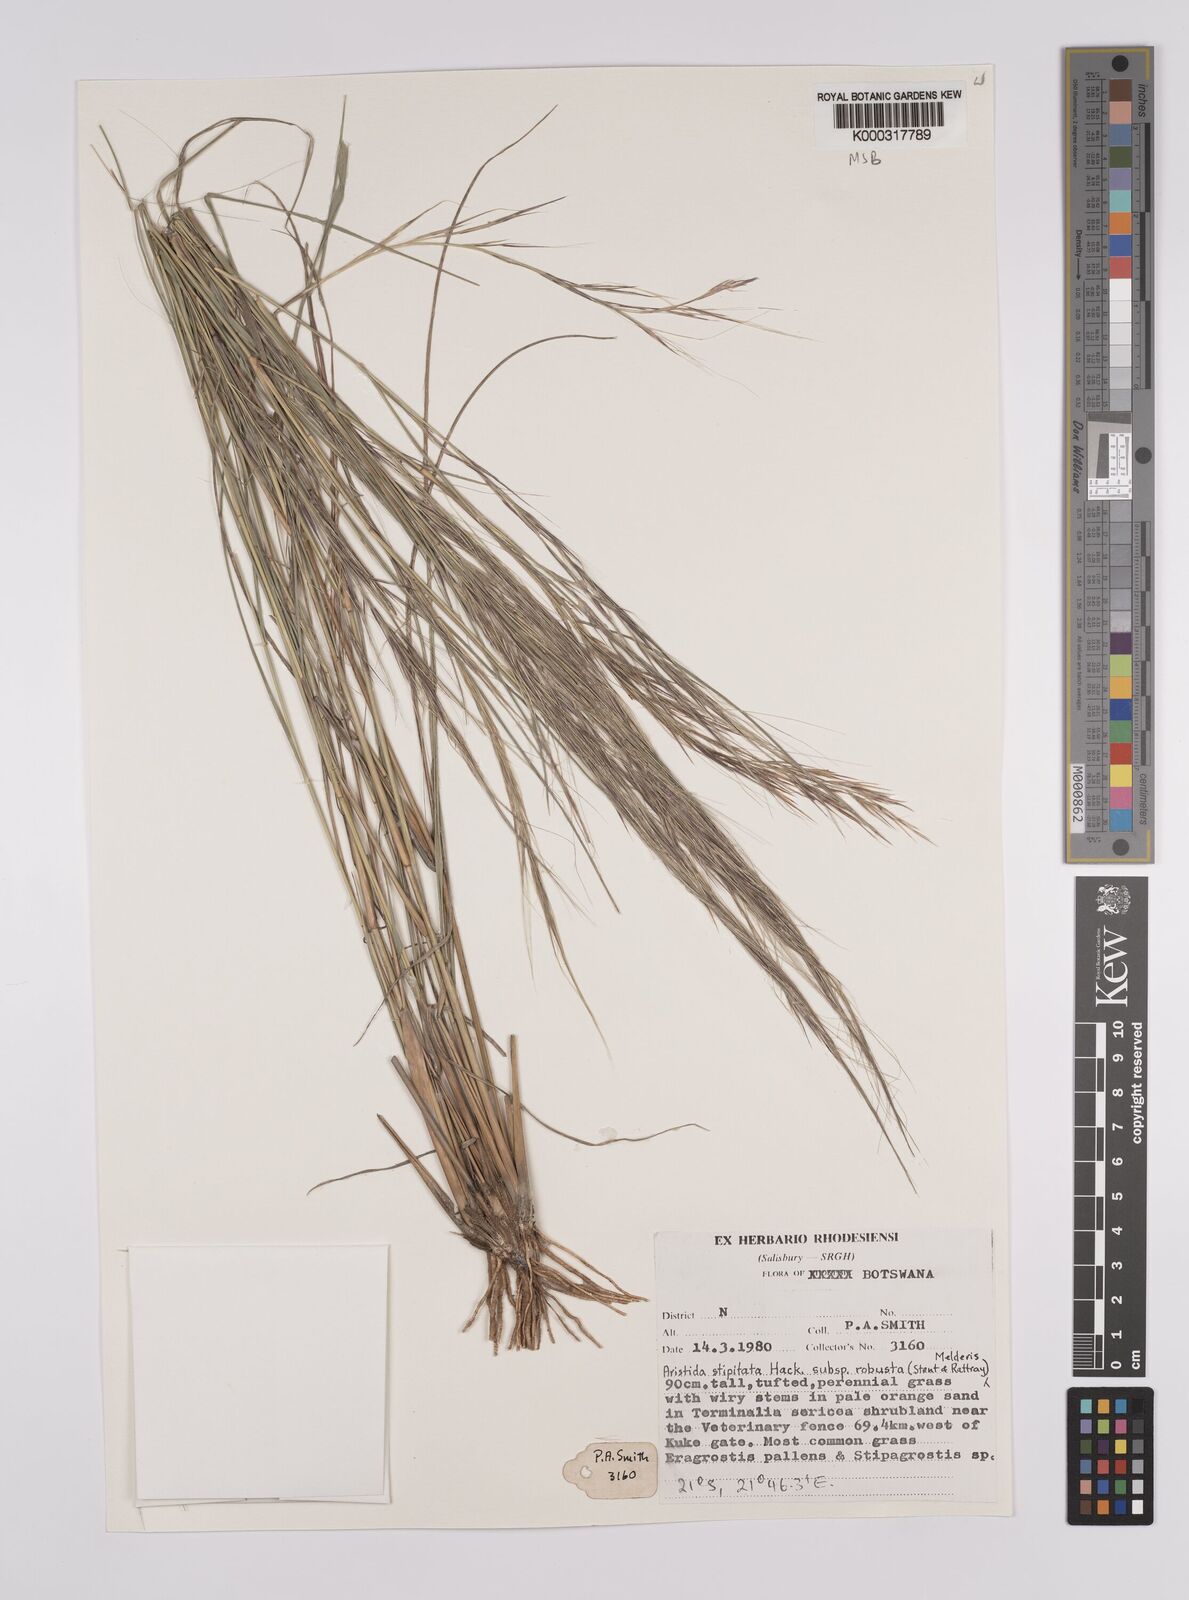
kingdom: Plantae
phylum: Tracheophyta
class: Liliopsida
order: Poales
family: Poaceae
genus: Aristida
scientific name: Aristida stipitata
